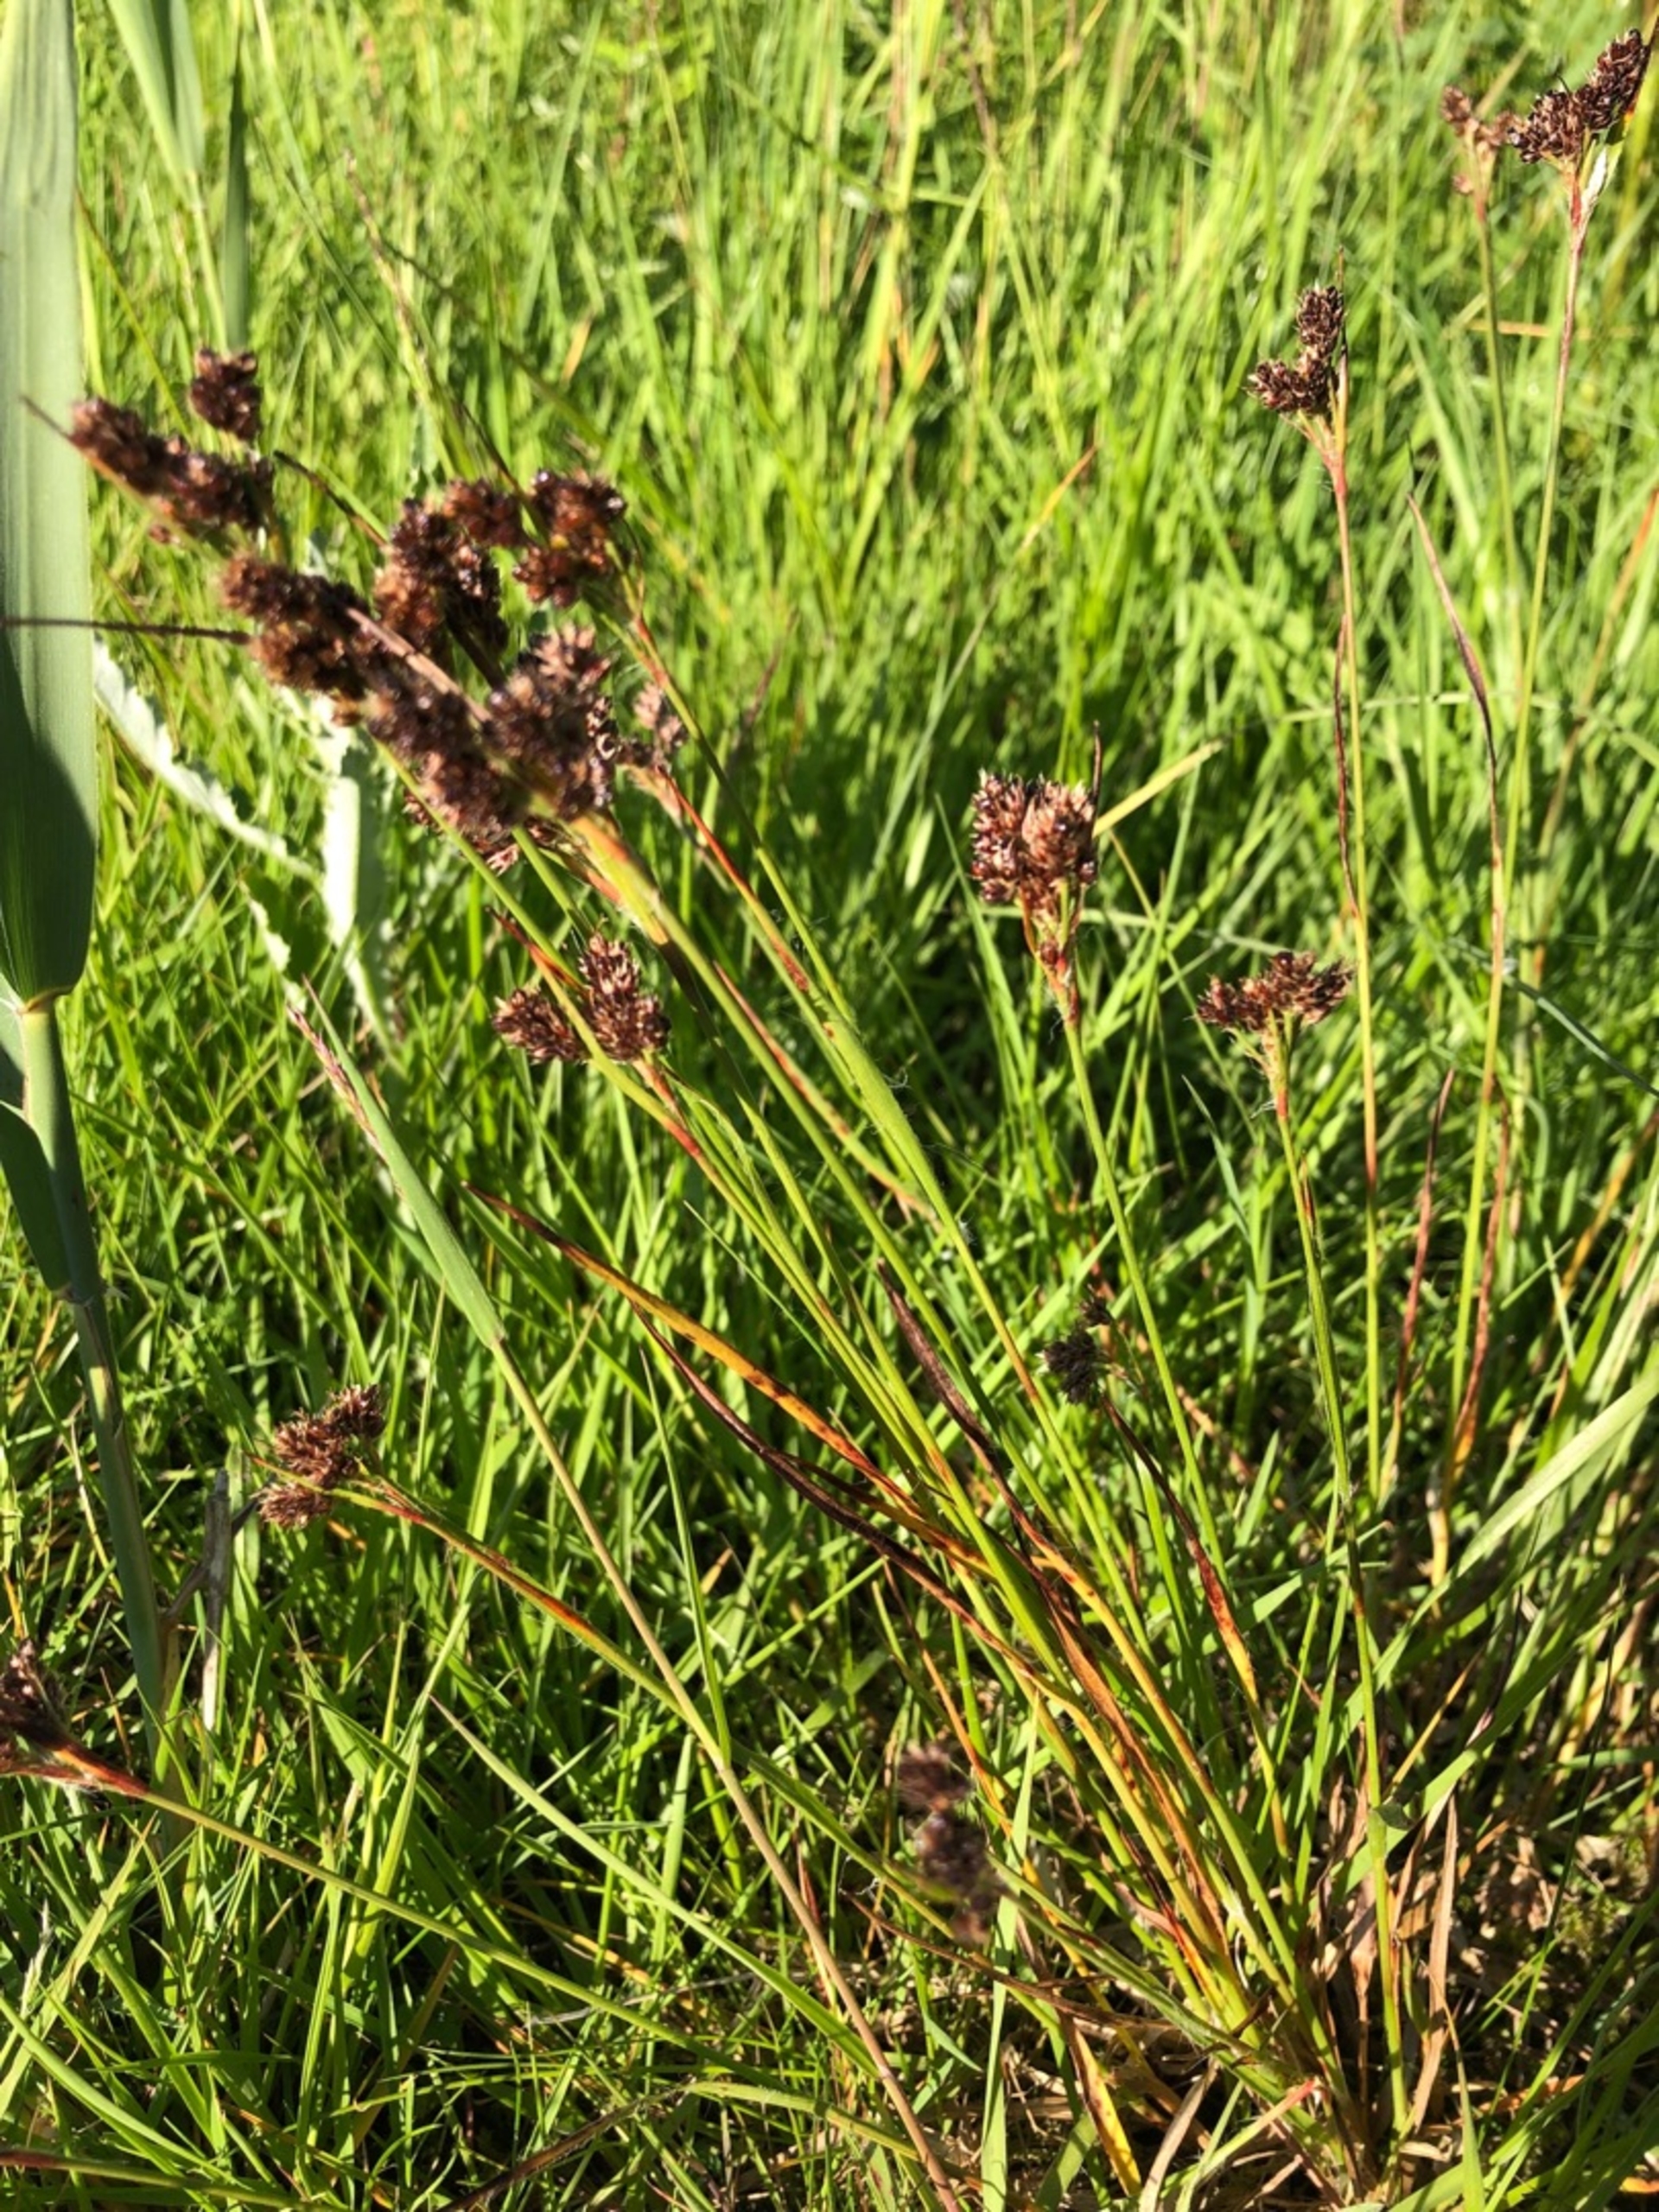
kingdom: Plantae
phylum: Tracheophyta
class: Liliopsida
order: Poales
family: Juncaceae
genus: Luzula
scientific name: Luzula multiflora
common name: Mangeblomstret frytle
